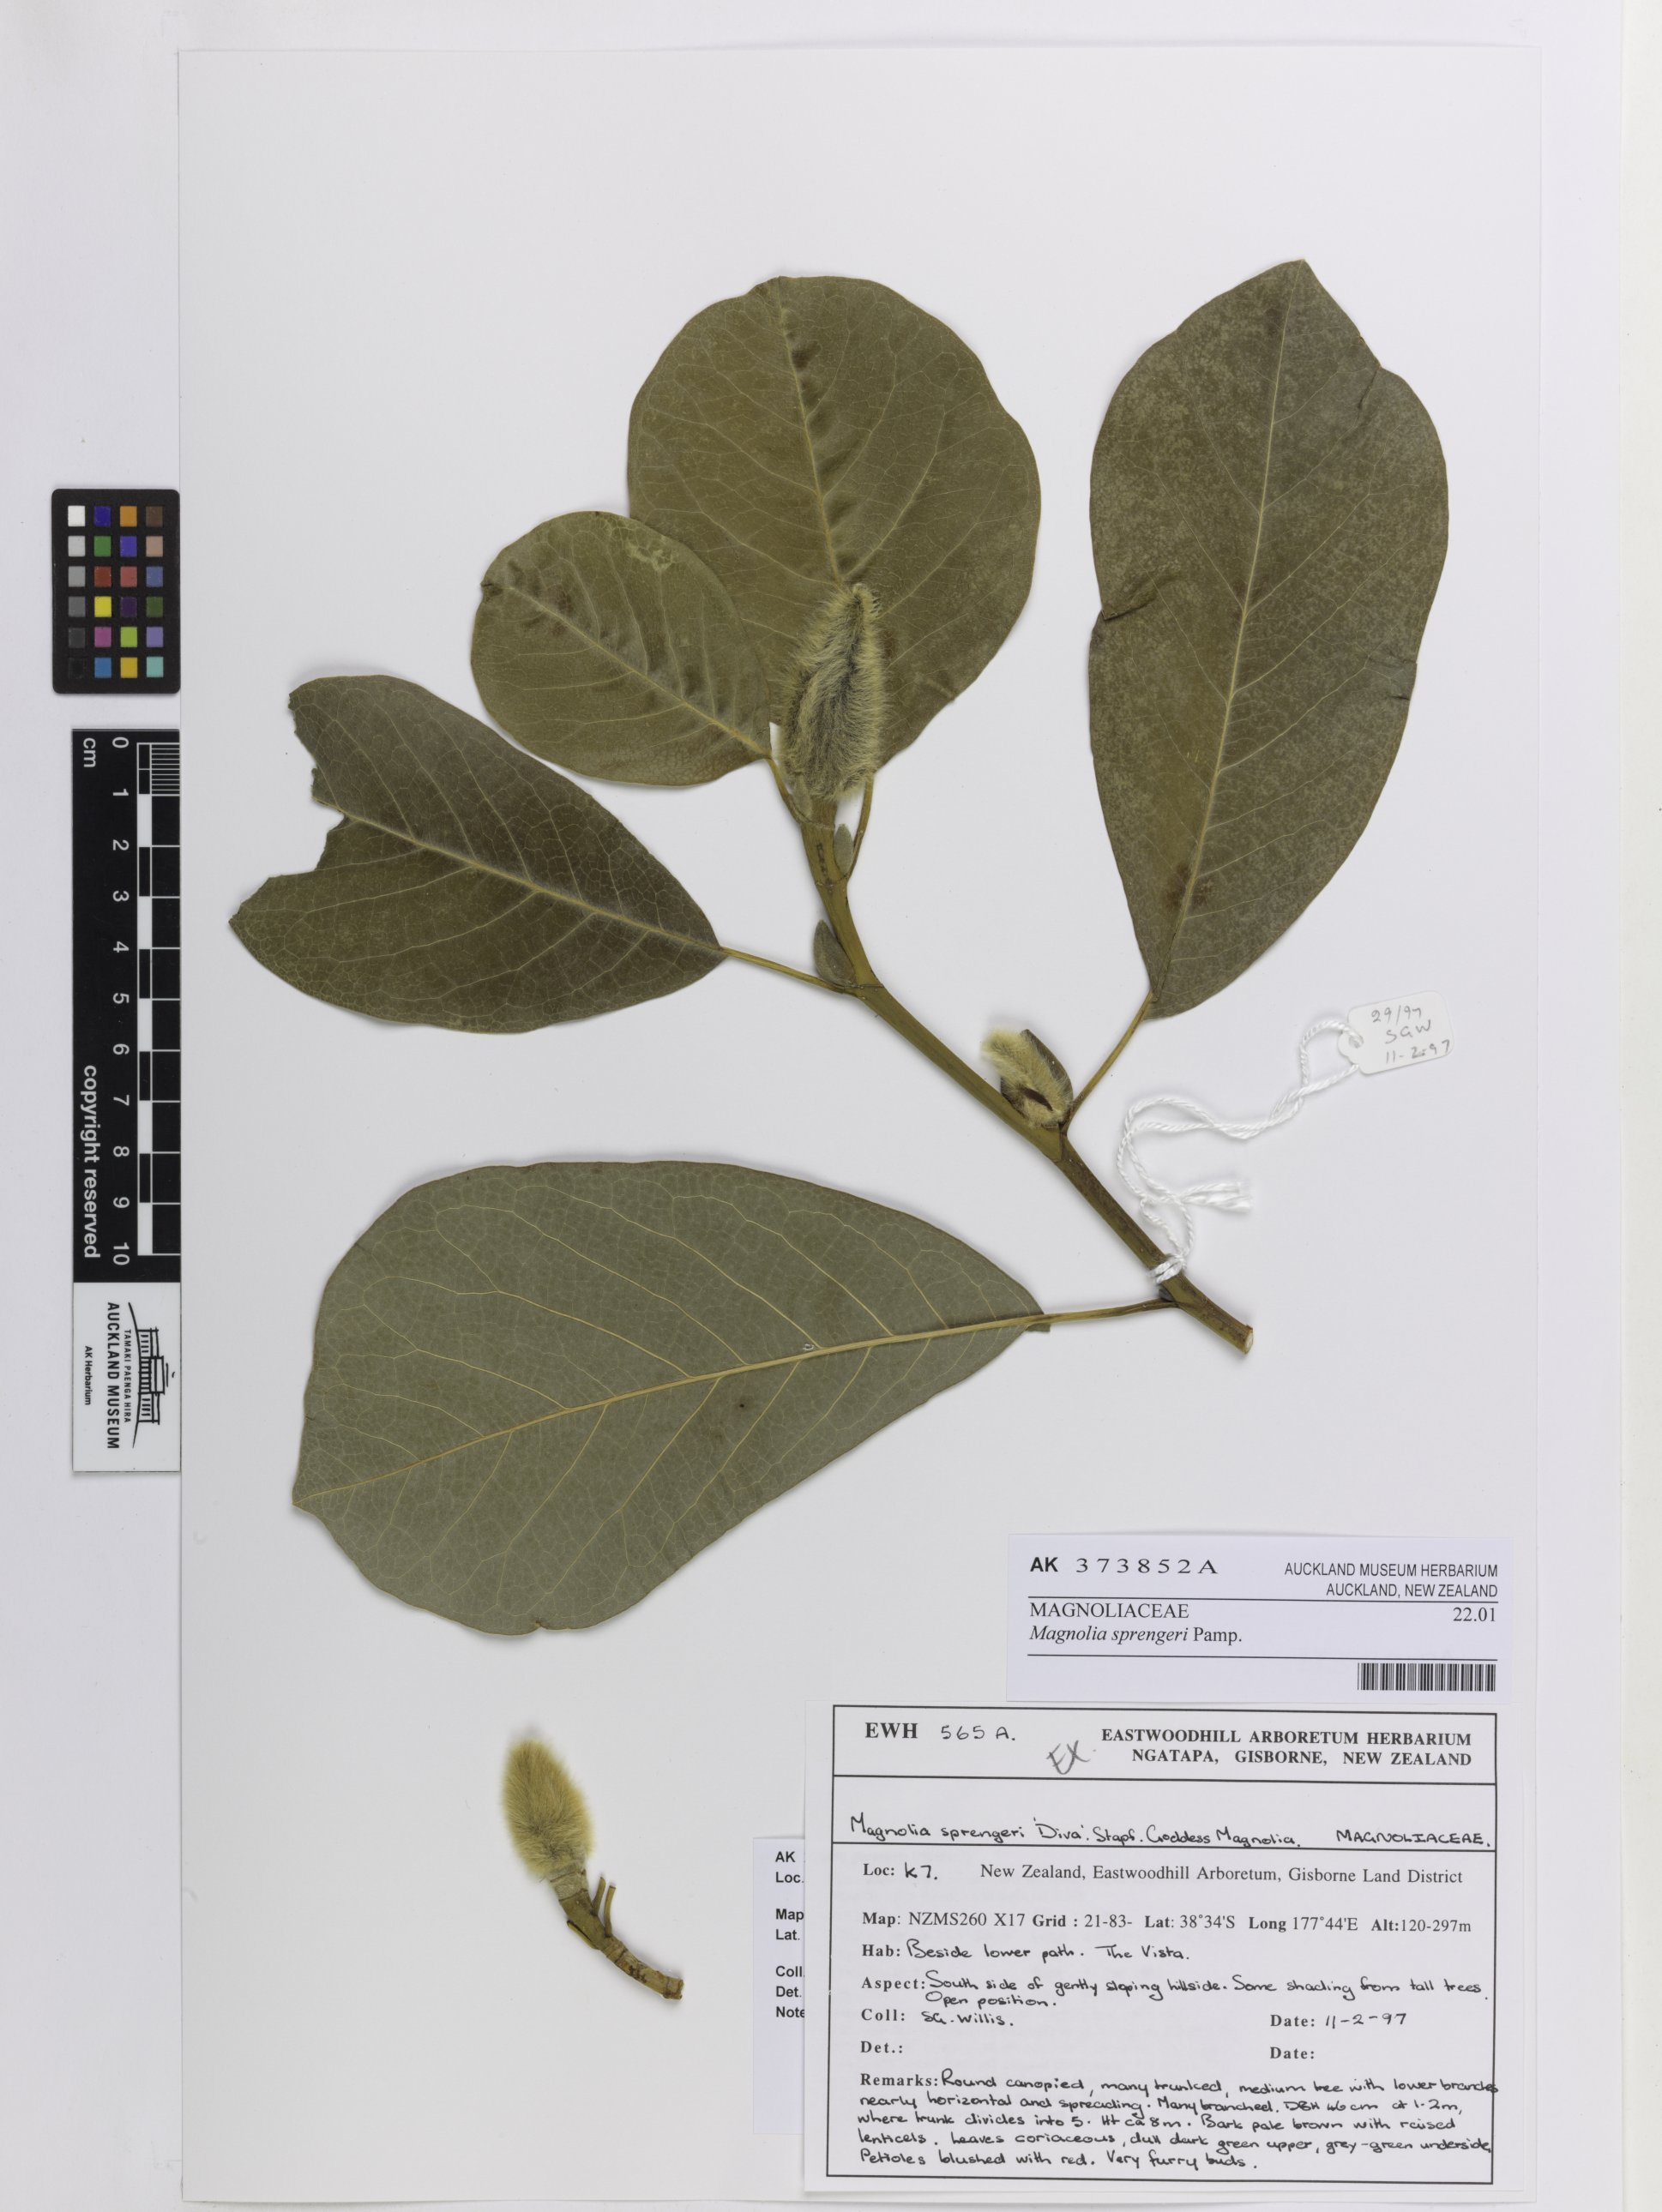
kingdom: Plantae
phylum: Tracheophyta
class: Magnoliopsida
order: Magnoliales
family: Magnoliaceae
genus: Magnolia
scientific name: Magnolia sprengeri
